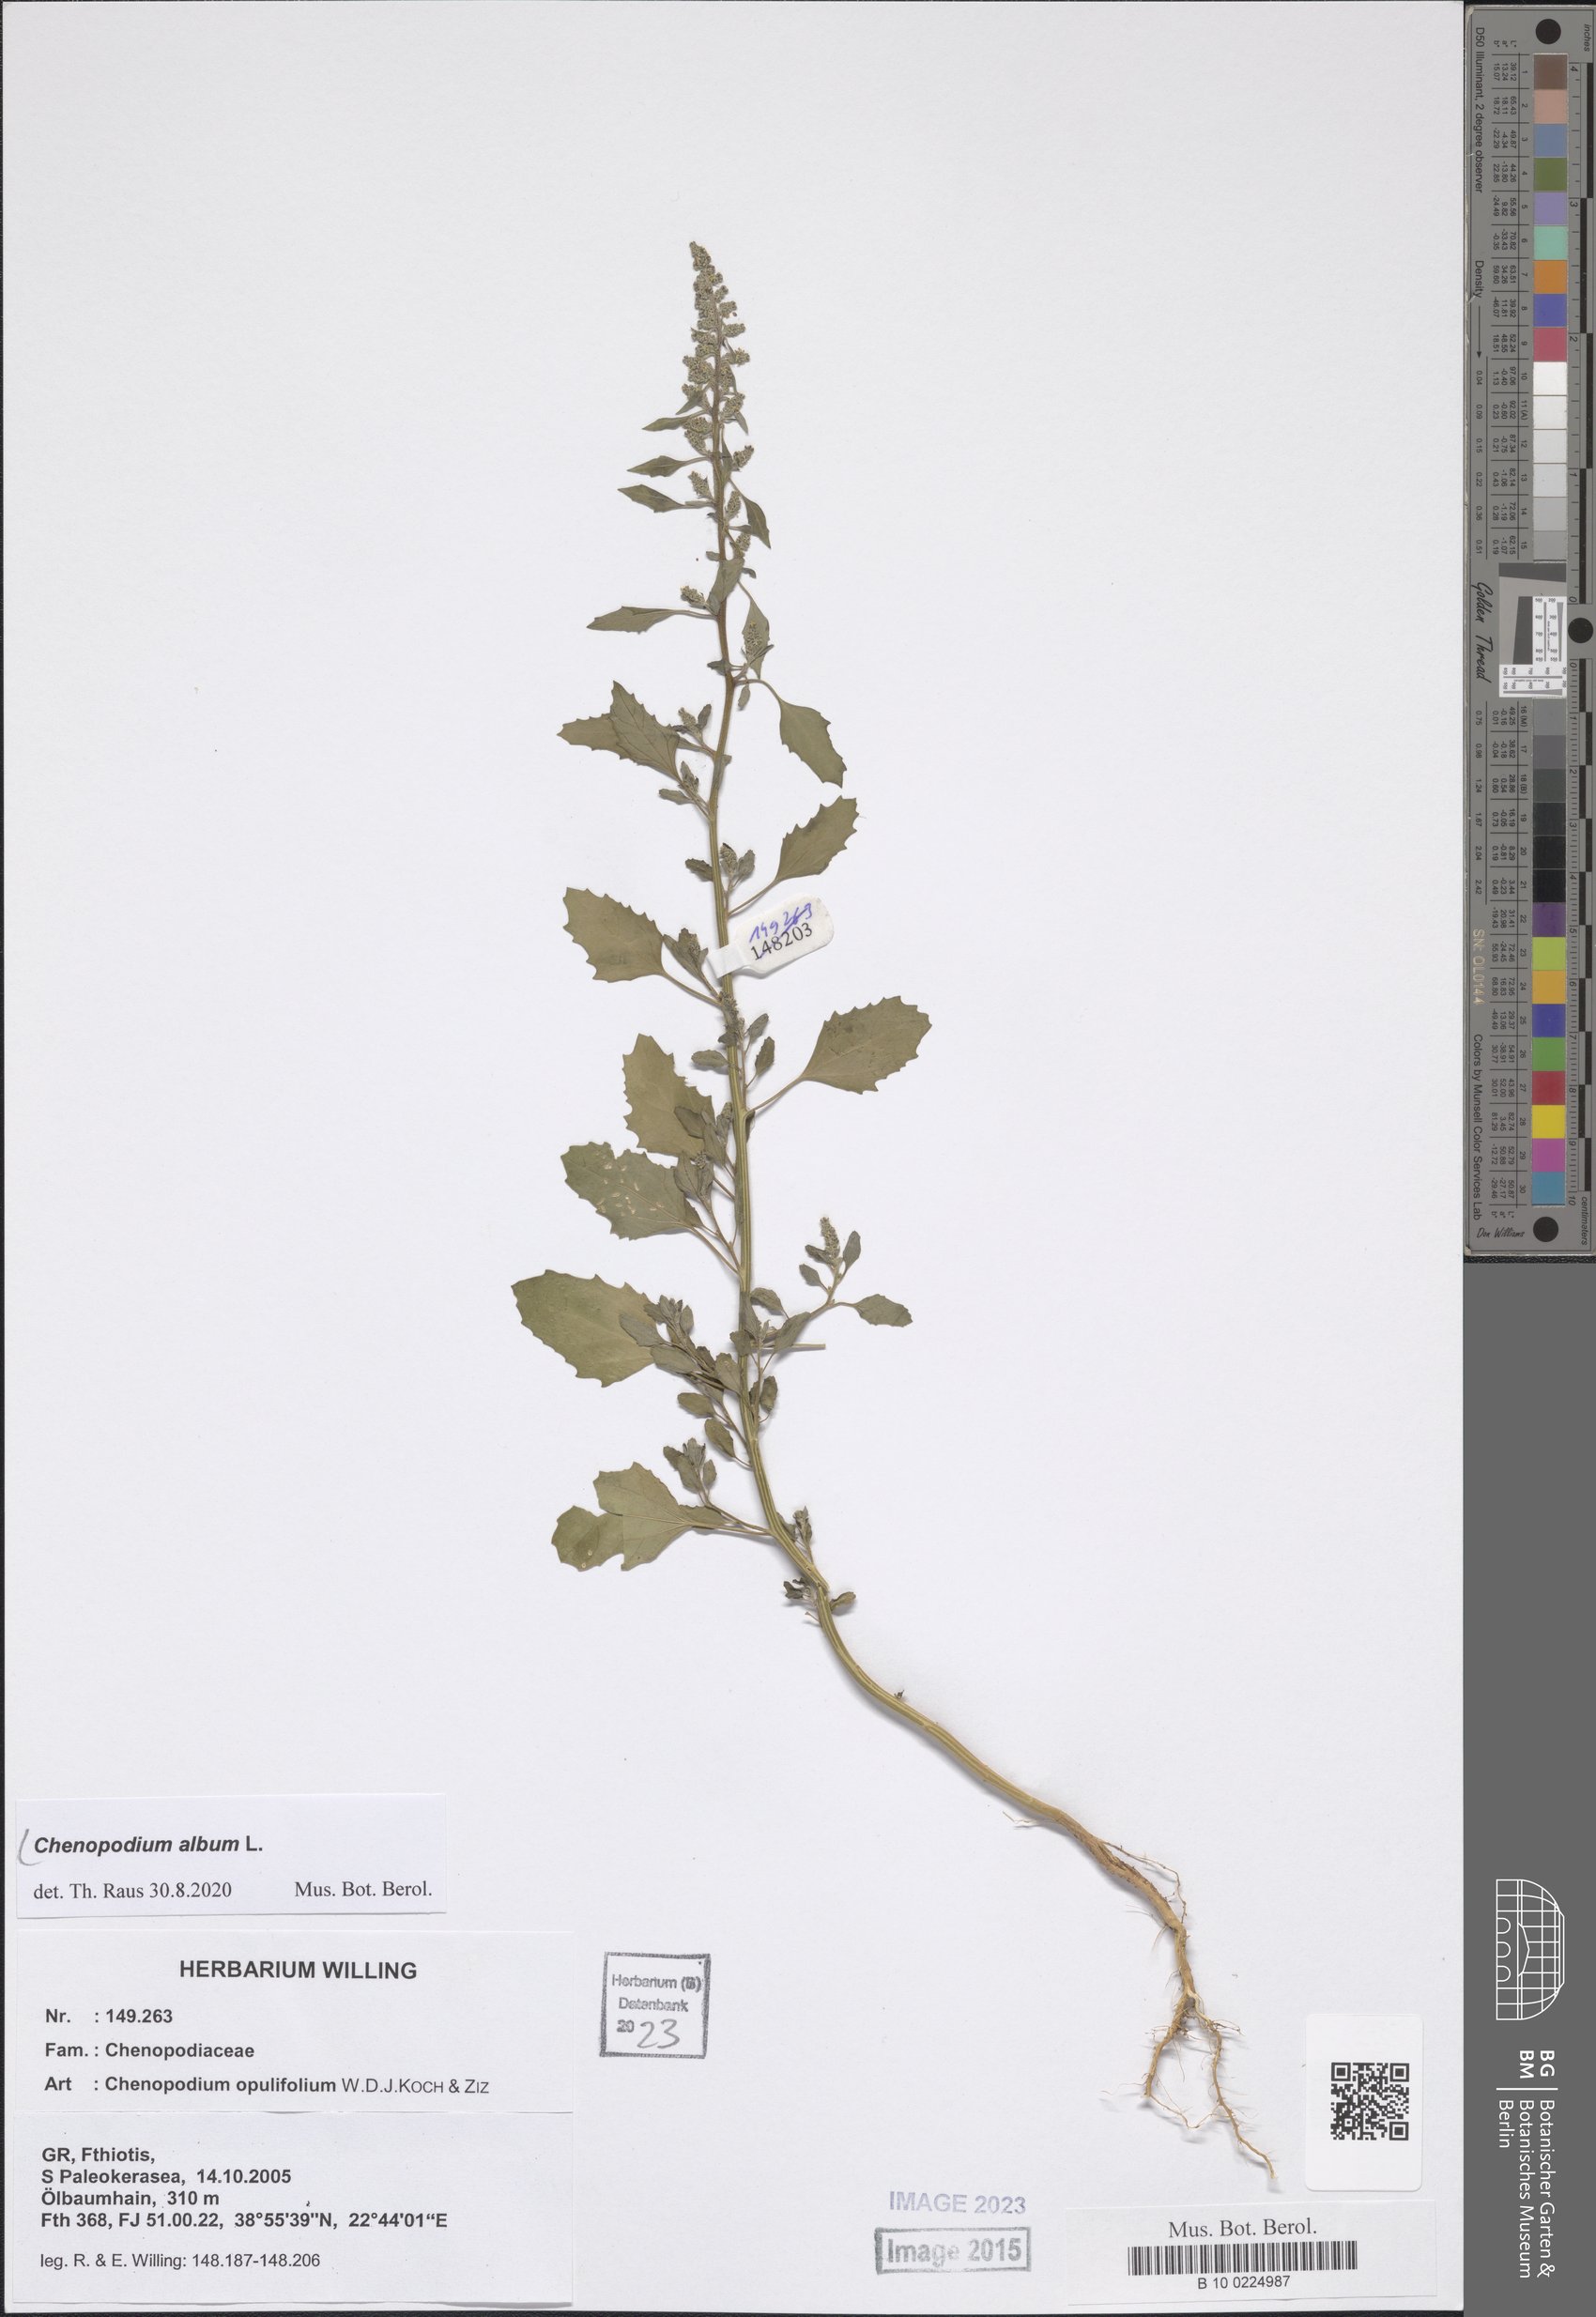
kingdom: Plantae
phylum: Tracheophyta
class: Magnoliopsida
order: Caryophyllales
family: Amaranthaceae
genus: Chenopodium
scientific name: Chenopodium album
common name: Fat-hen
